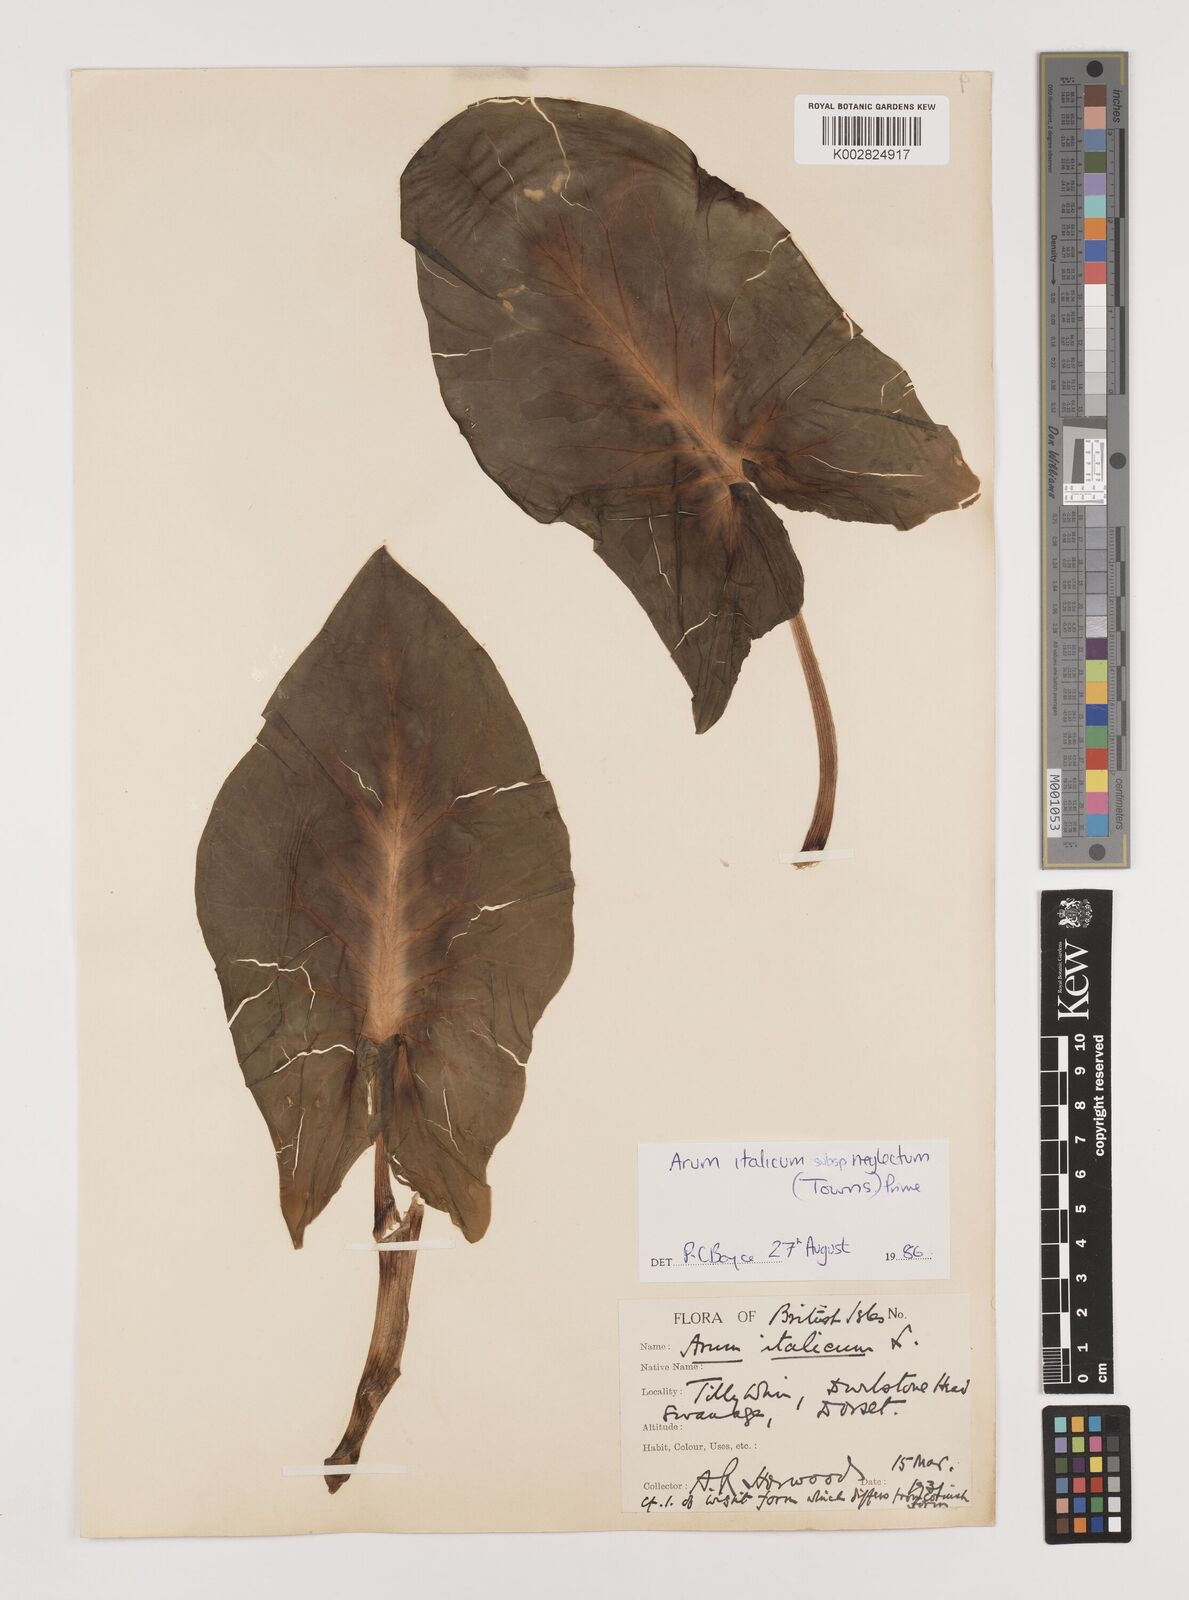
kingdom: Plantae
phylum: Tracheophyta
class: Liliopsida
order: Alismatales
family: Araceae
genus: Arum
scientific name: Arum italicum
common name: Italian lords-and-ladies
